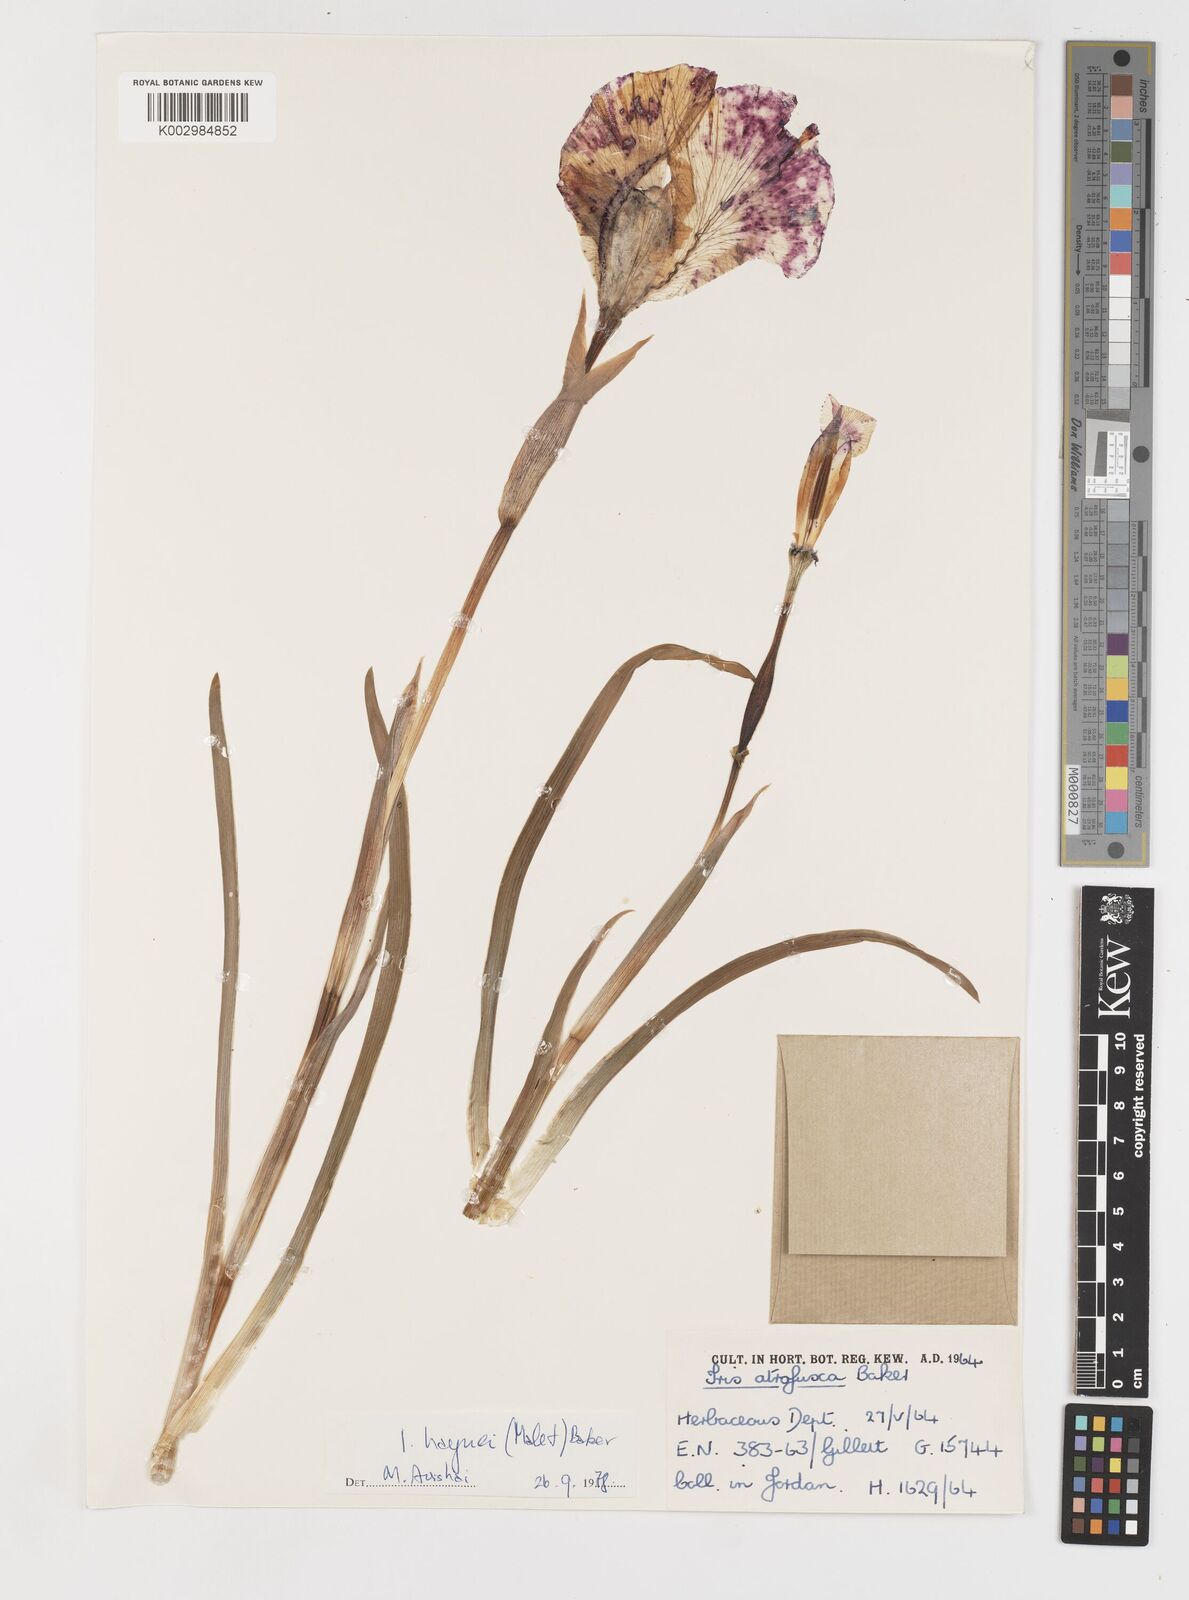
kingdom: Plantae
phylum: Tracheophyta
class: Liliopsida
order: Asparagales
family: Iridaceae
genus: Iris
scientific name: Iris atrofusca
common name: Asshafa iris
